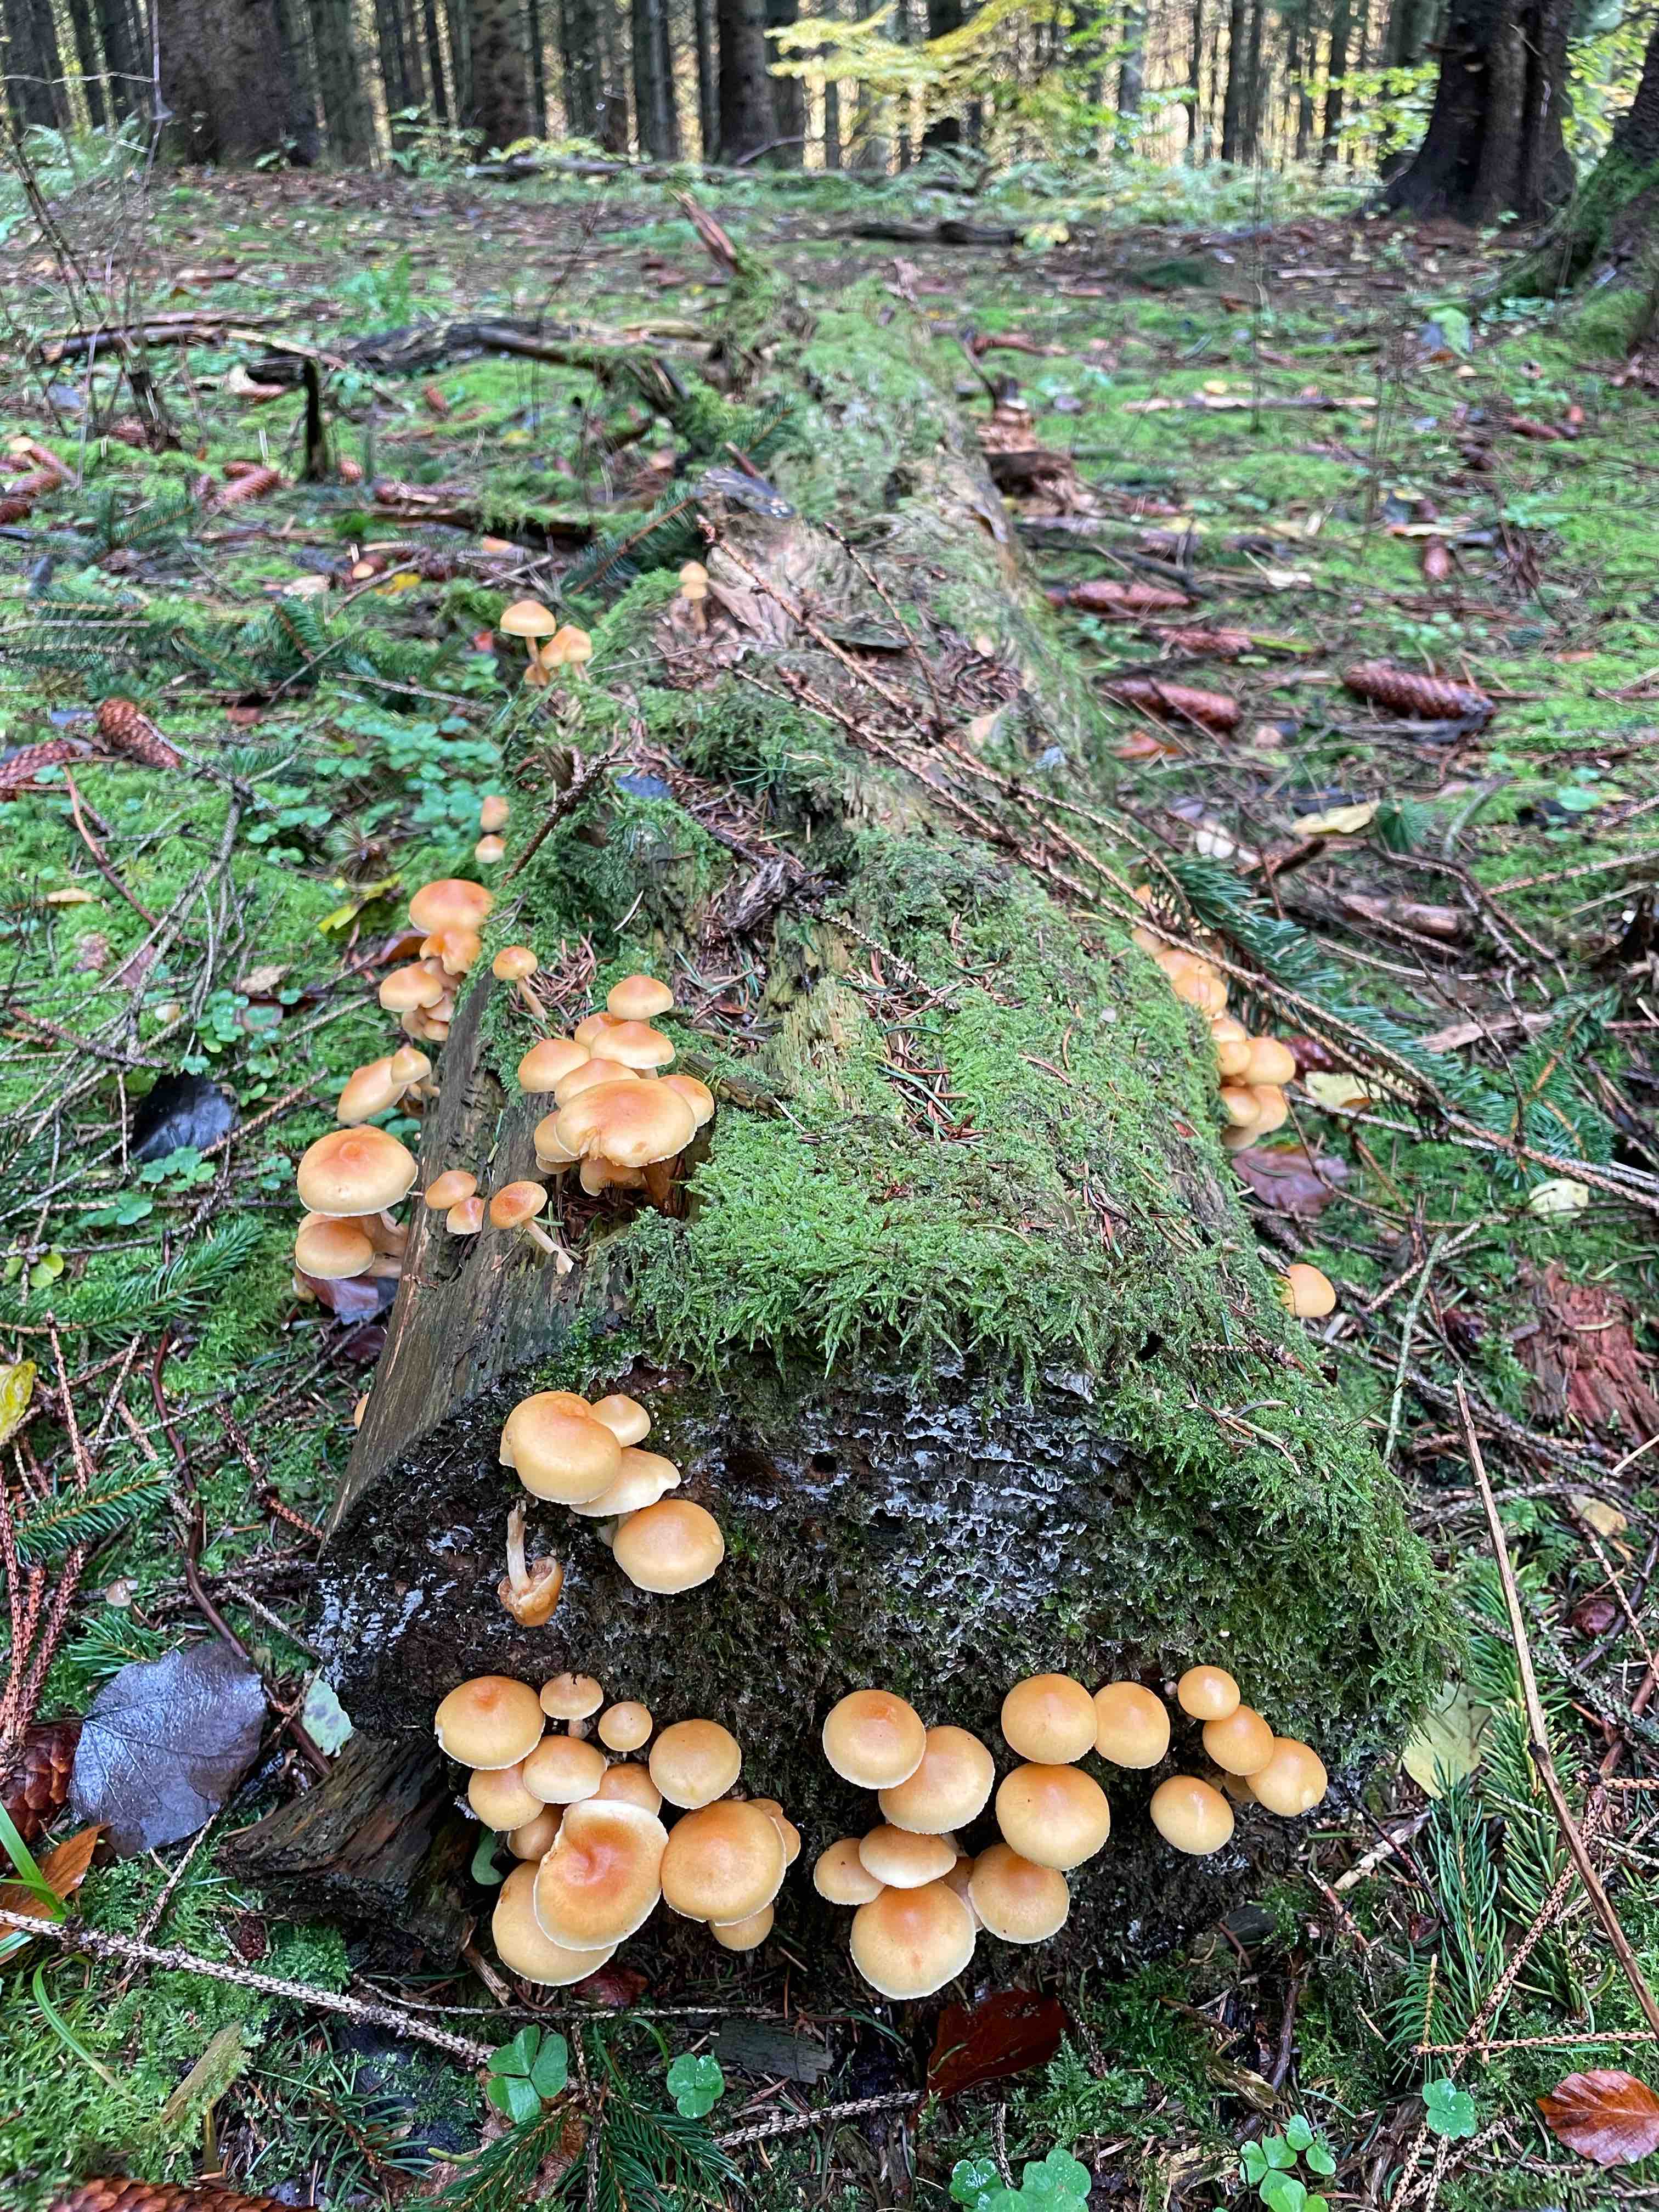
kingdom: Fungi
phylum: Basidiomycota
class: Agaricomycetes
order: Agaricales
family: Hymenogastraceae
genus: Gymnopilus
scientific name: Gymnopilus penetrans
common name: plettet flammehat
